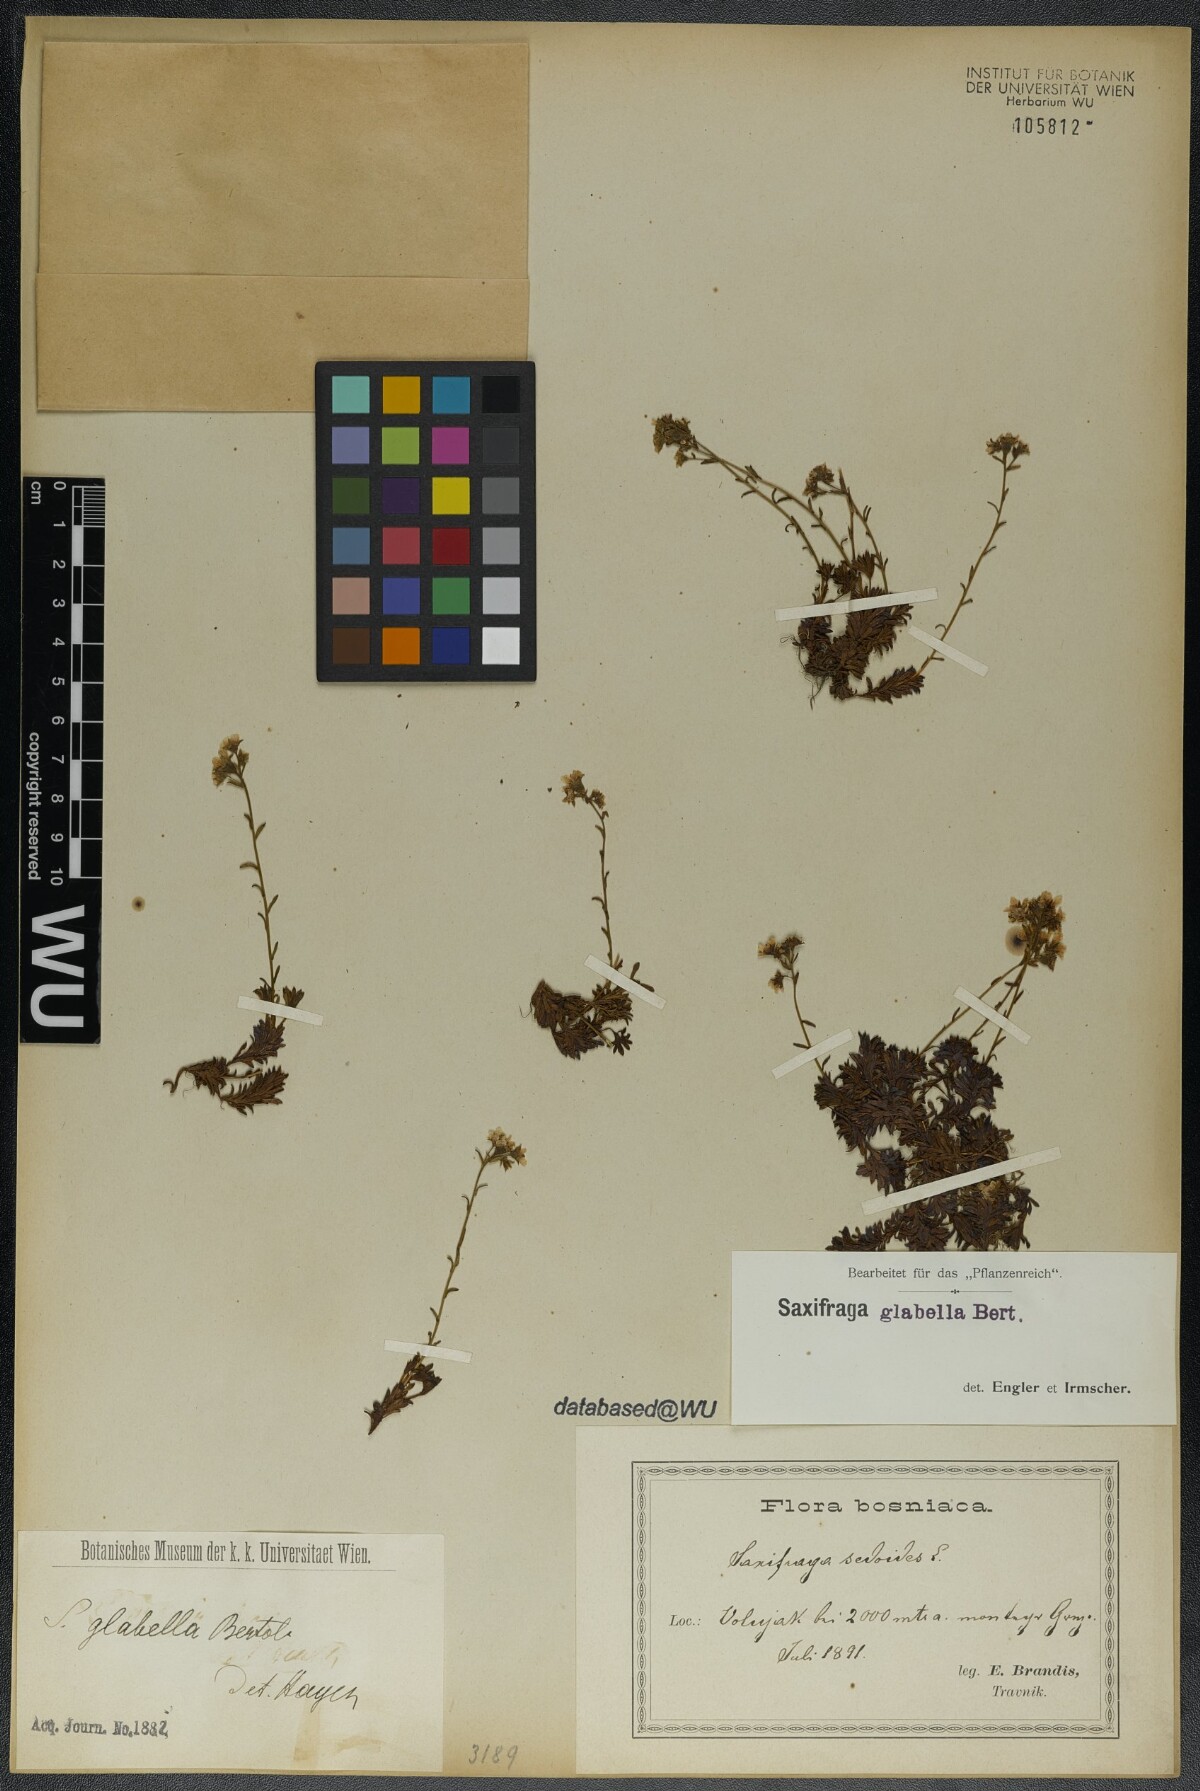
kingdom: Plantae
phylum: Tracheophyta
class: Magnoliopsida
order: Saxifragales
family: Saxifragaceae
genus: Saxifraga
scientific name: Saxifraga glabella
